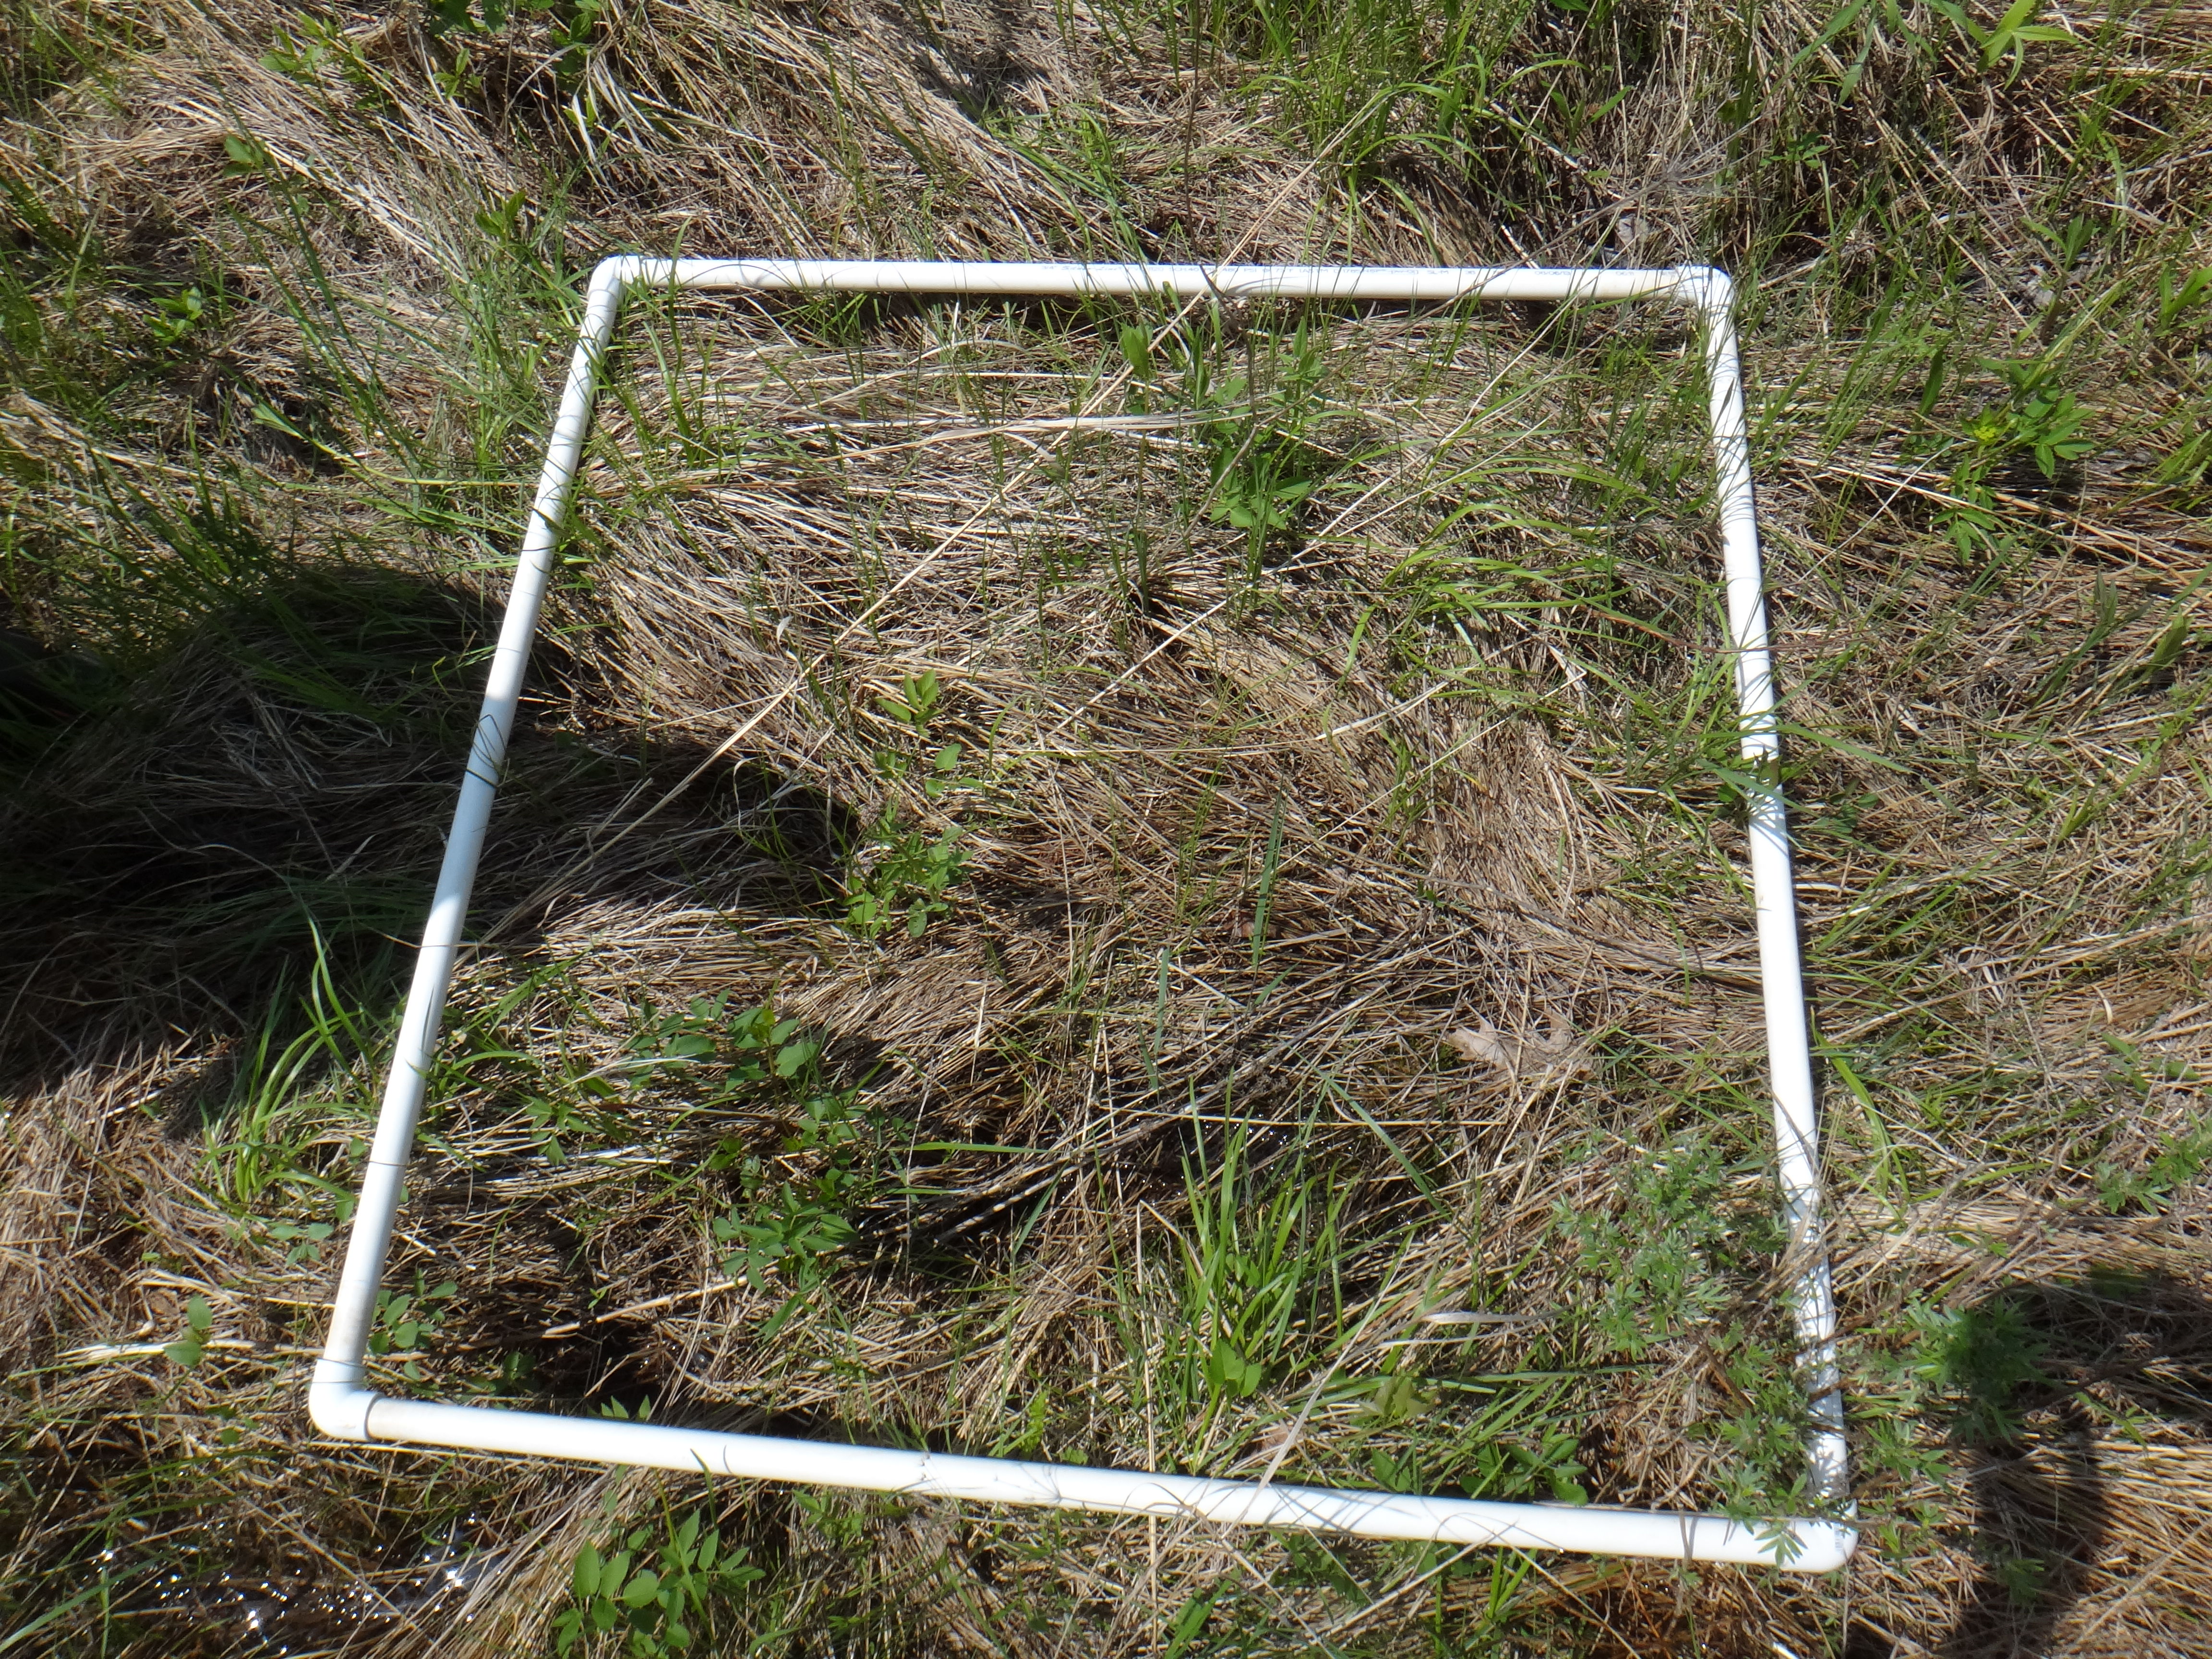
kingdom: Plantae
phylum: Tracheophyta
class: Liliopsida
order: Poales
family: Poaceae
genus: Calamagrostis
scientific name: Calamagrostis canadensis
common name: Canada bluejoint
